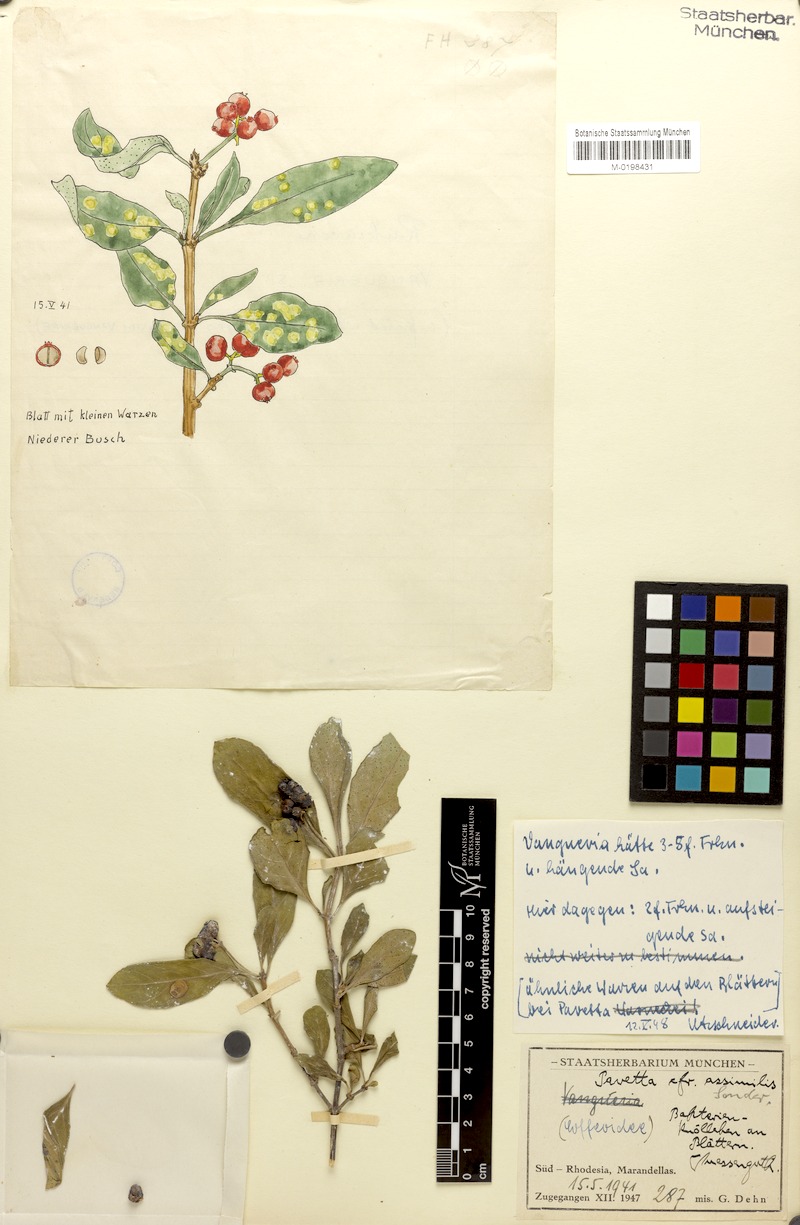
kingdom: Plantae
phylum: Tracheophyta
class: Magnoliopsida
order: Gentianales
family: Rubiaceae
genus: Pavetta
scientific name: Pavetta gardeniifolia
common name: Common brides-bush
